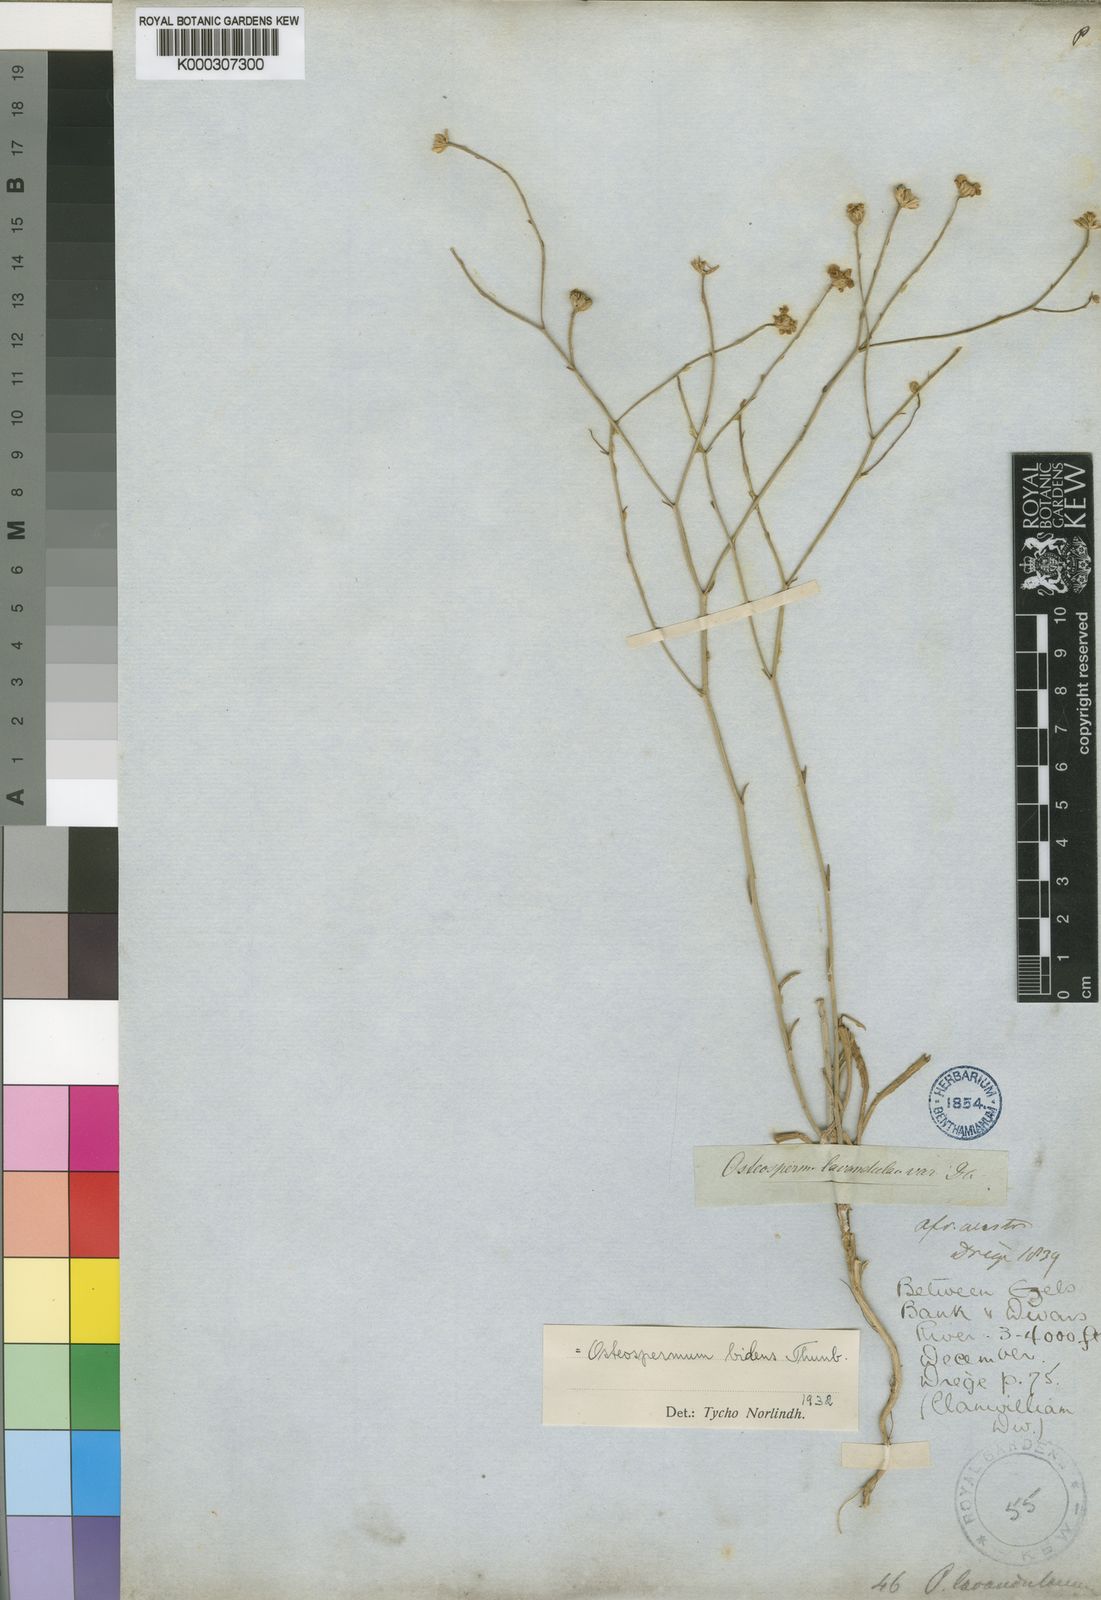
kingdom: Plantae
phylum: Tracheophyta
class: Magnoliopsida
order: Asterales
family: Asteraceae
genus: Osteospermum
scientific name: Osteospermum bidens
